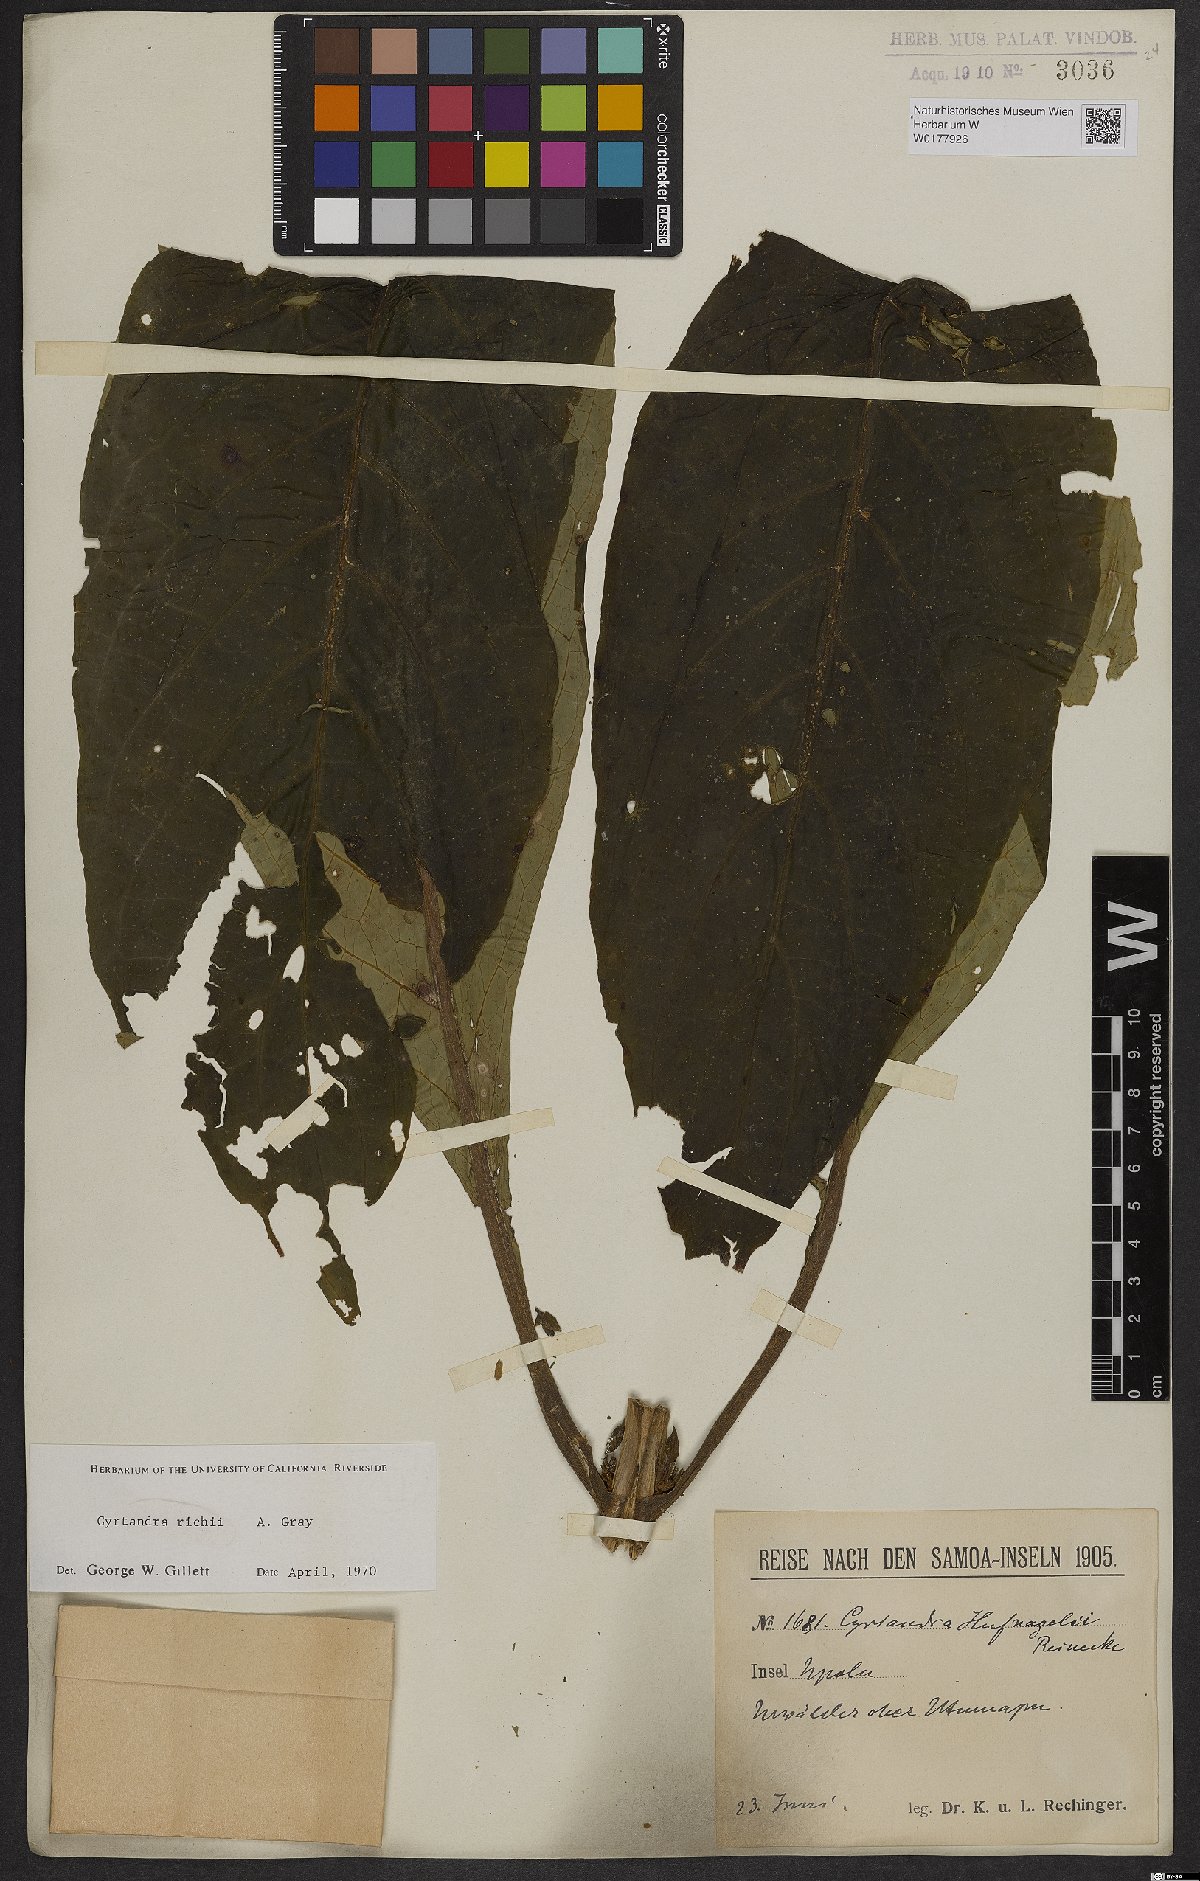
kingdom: Plantae
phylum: Tracheophyta
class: Magnoliopsida
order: Lamiales
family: Gesneriaceae
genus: Cyrtandra
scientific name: Cyrtandra richii
